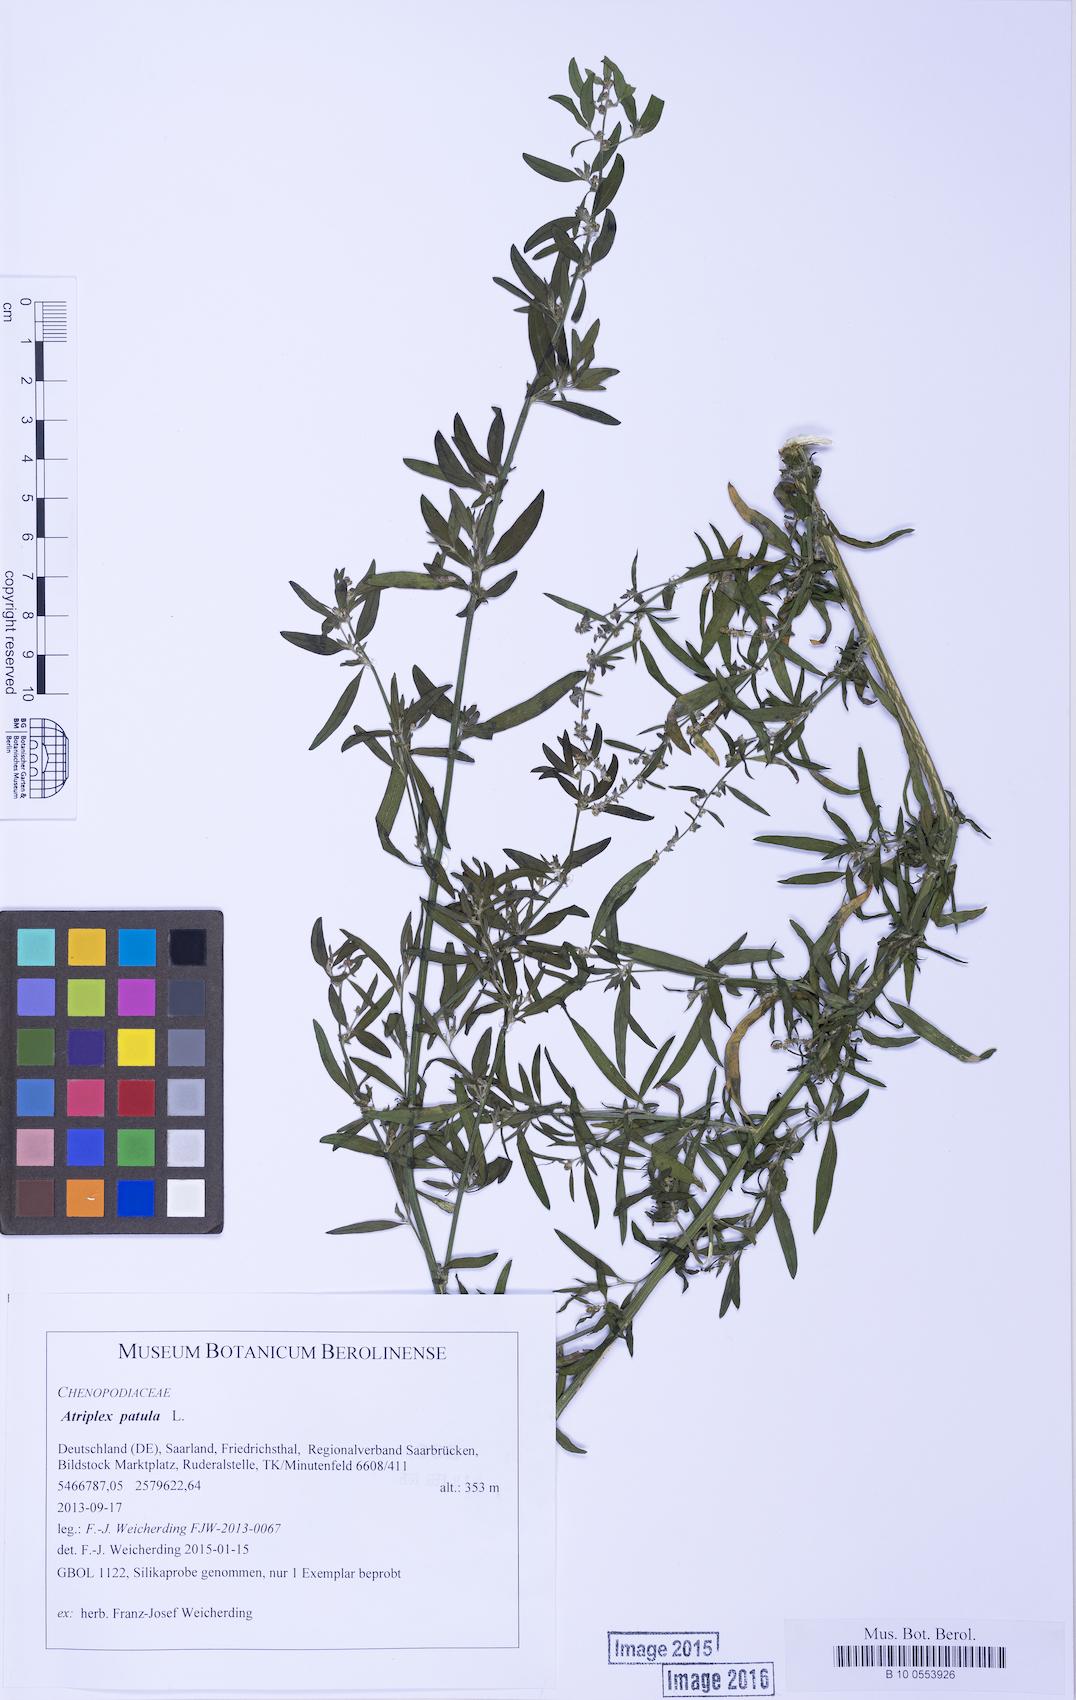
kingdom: Plantae
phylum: Tracheophyta
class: Magnoliopsida
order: Caryophyllales
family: Amaranthaceae
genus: Atriplex
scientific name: Atriplex patula
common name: Common orache
